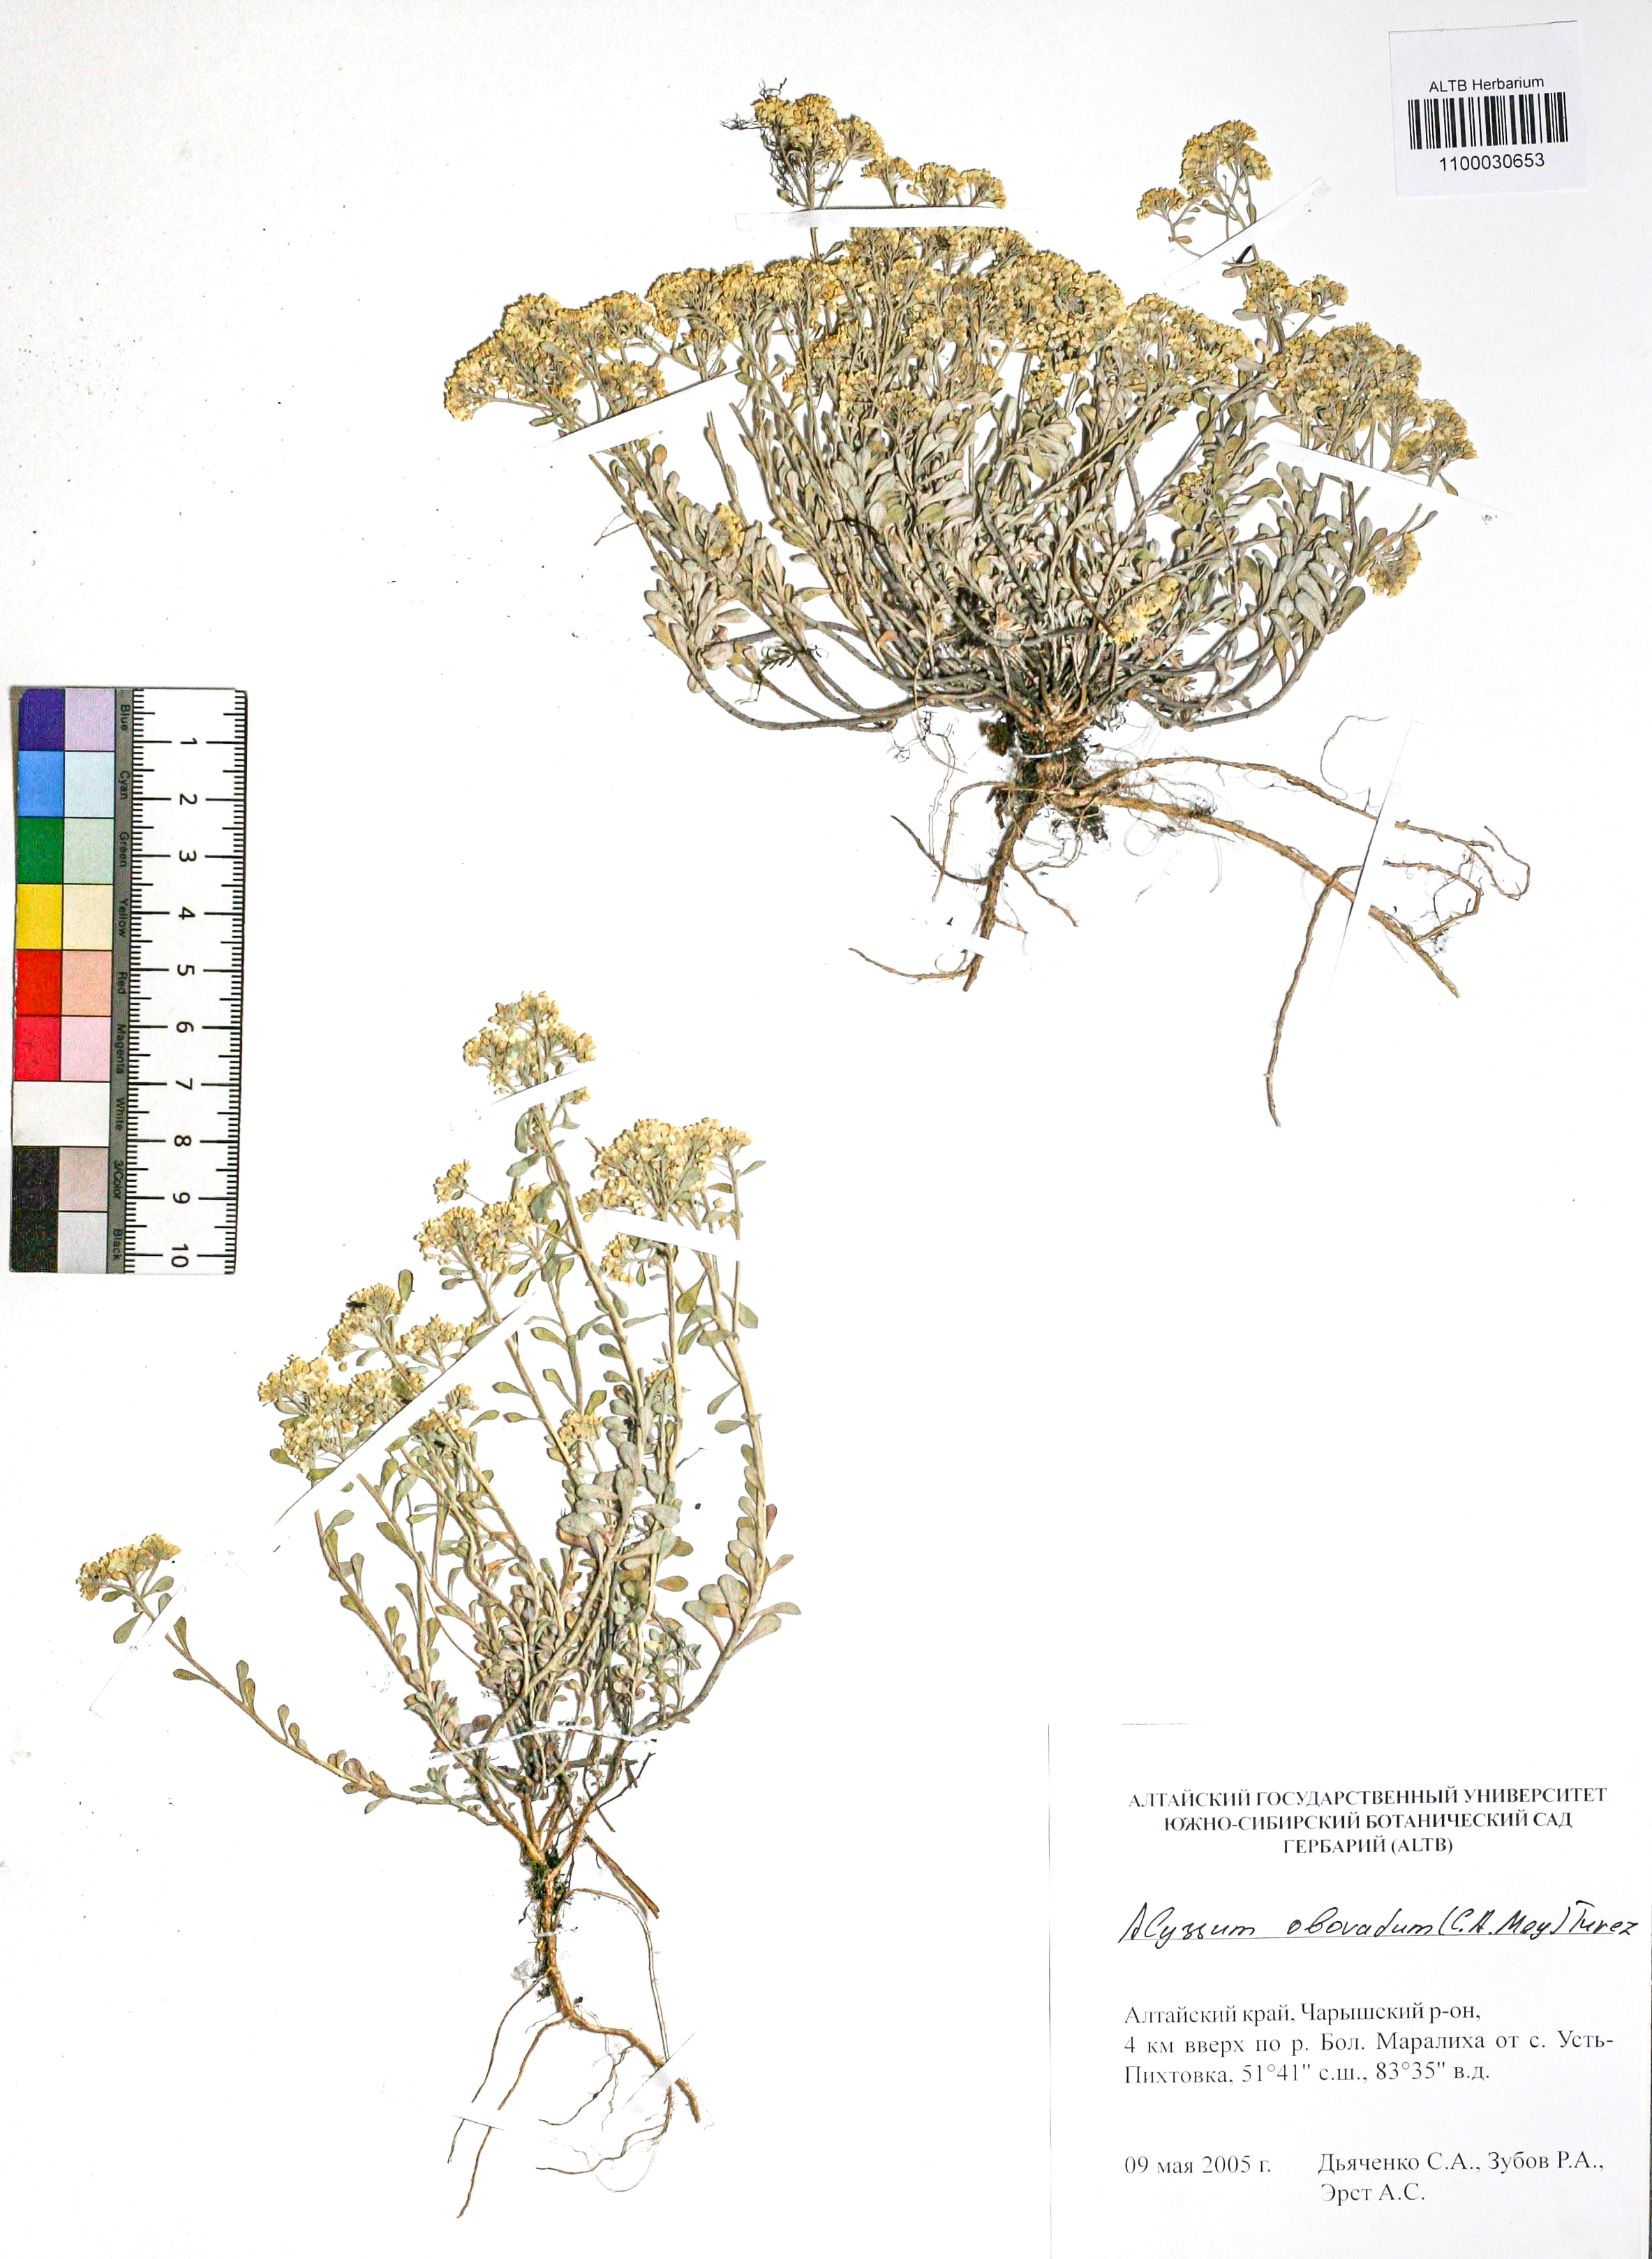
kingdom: Plantae
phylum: Tracheophyta
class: Magnoliopsida
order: Brassicales
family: Brassicaceae
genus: Odontarrhena
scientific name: Odontarrhena obovata
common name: American alyssum
